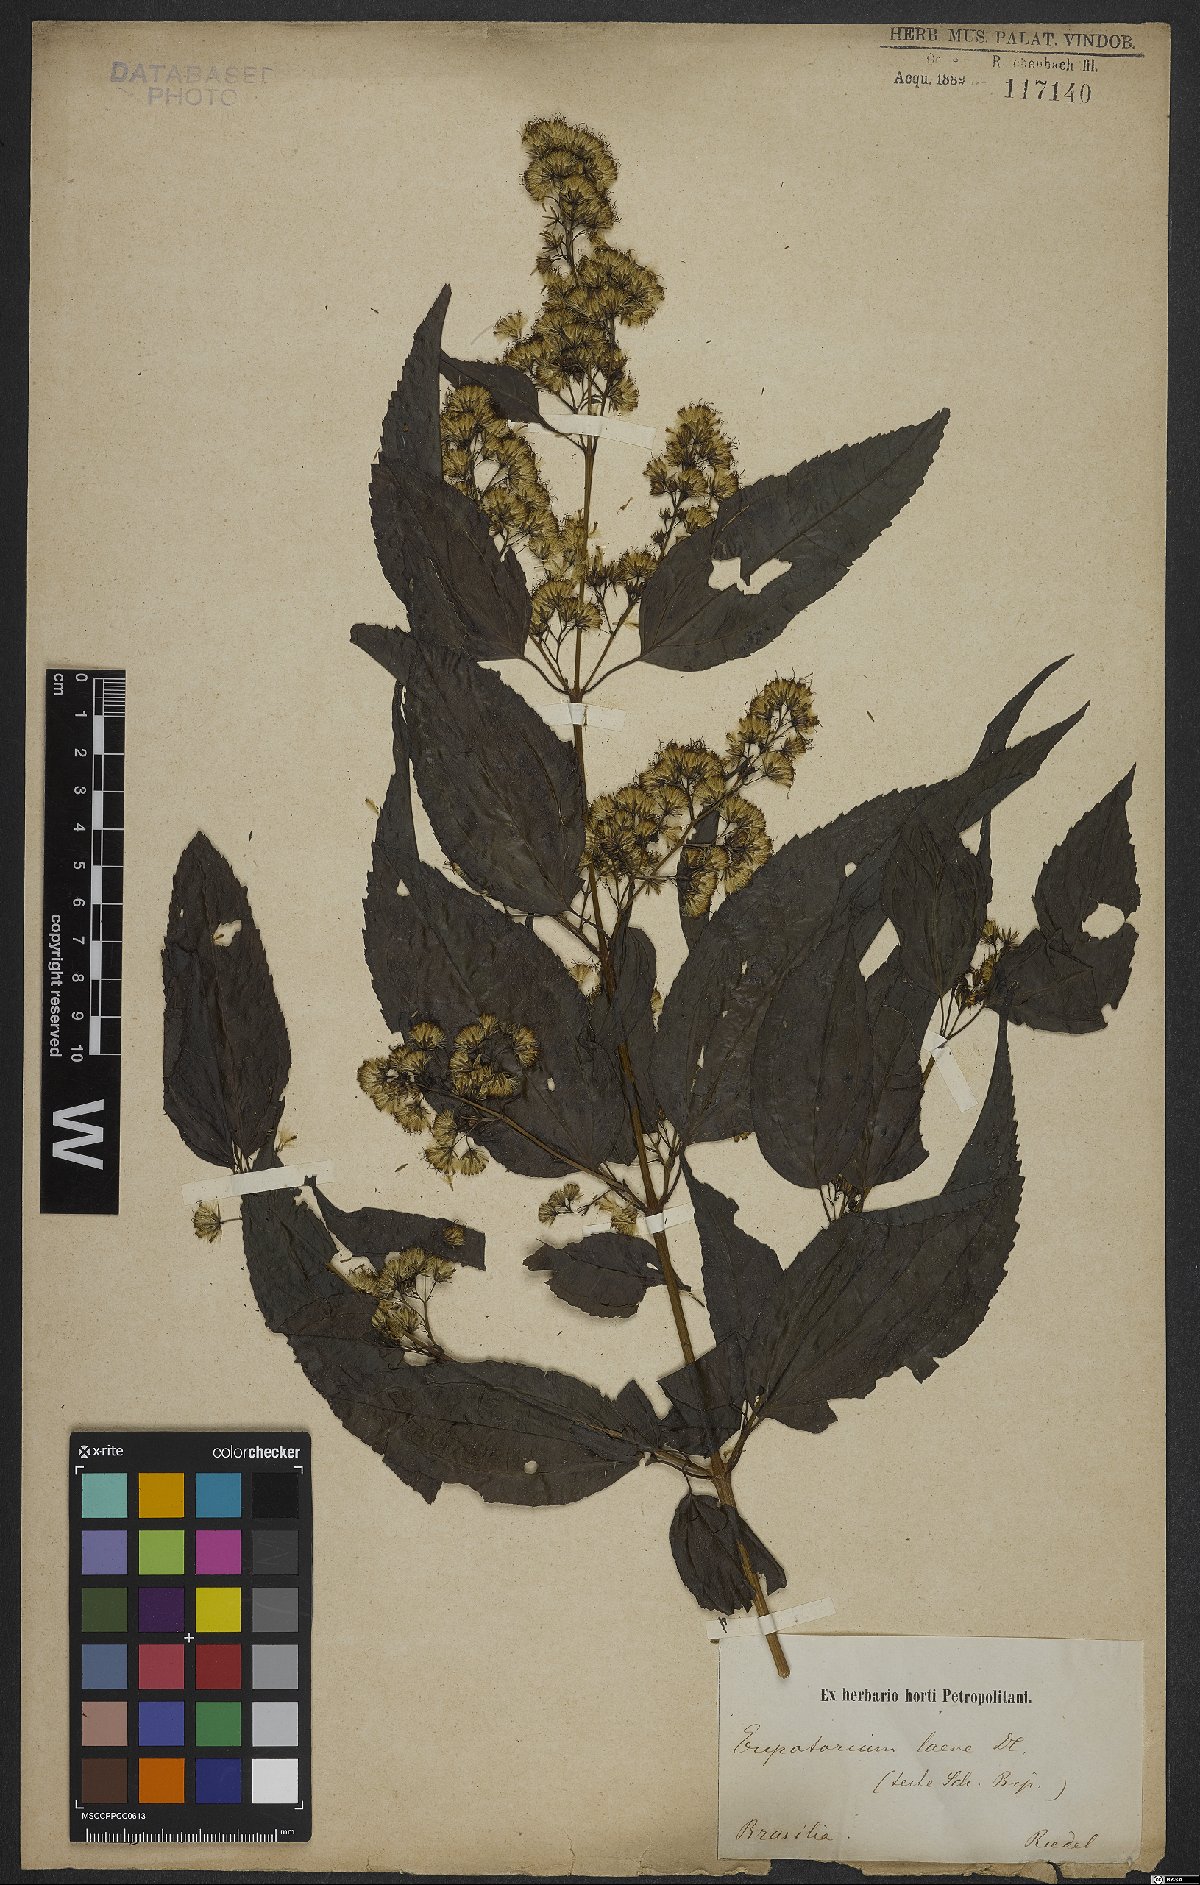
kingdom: Plantae
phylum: Tracheophyta
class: Magnoliopsida
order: Asterales
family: Asteraceae
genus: Koanophyllon
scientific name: Koanophyllon simillimum
